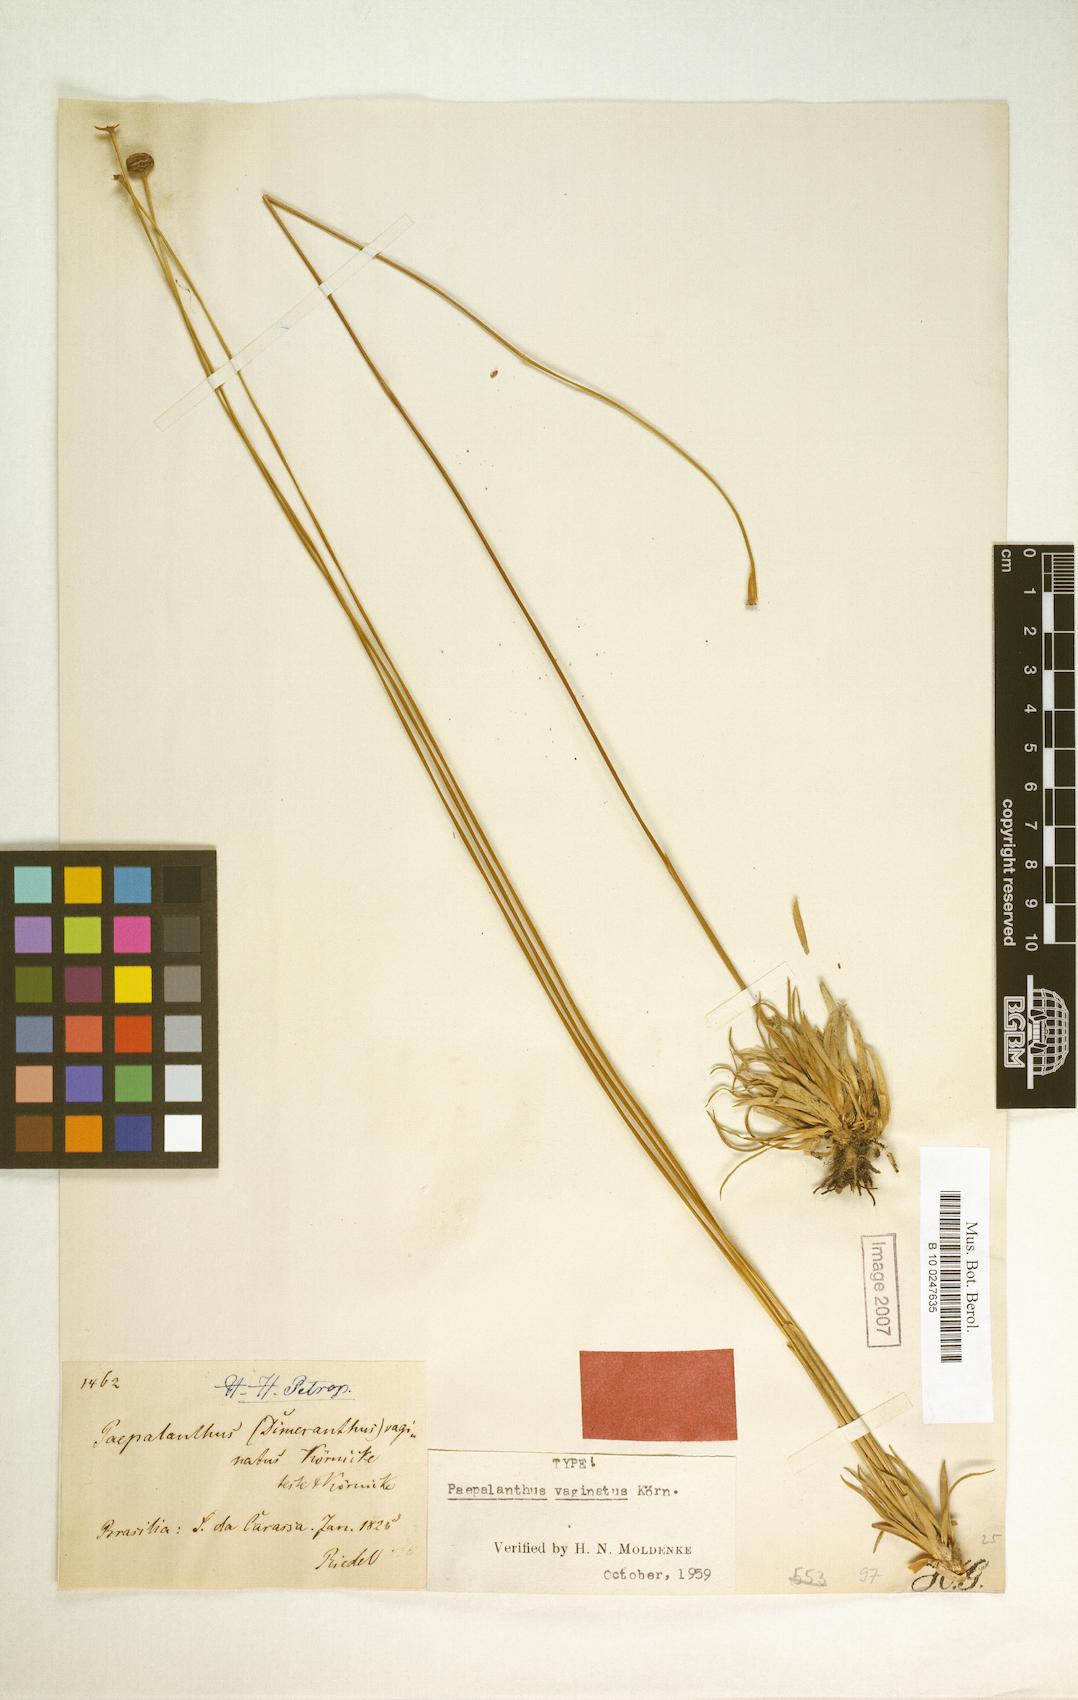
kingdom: Plantae
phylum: Tracheophyta
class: Liliopsida
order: Poales
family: Eriocaulaceae
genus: Syngonanthus
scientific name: Syngonanthus fischerianus
